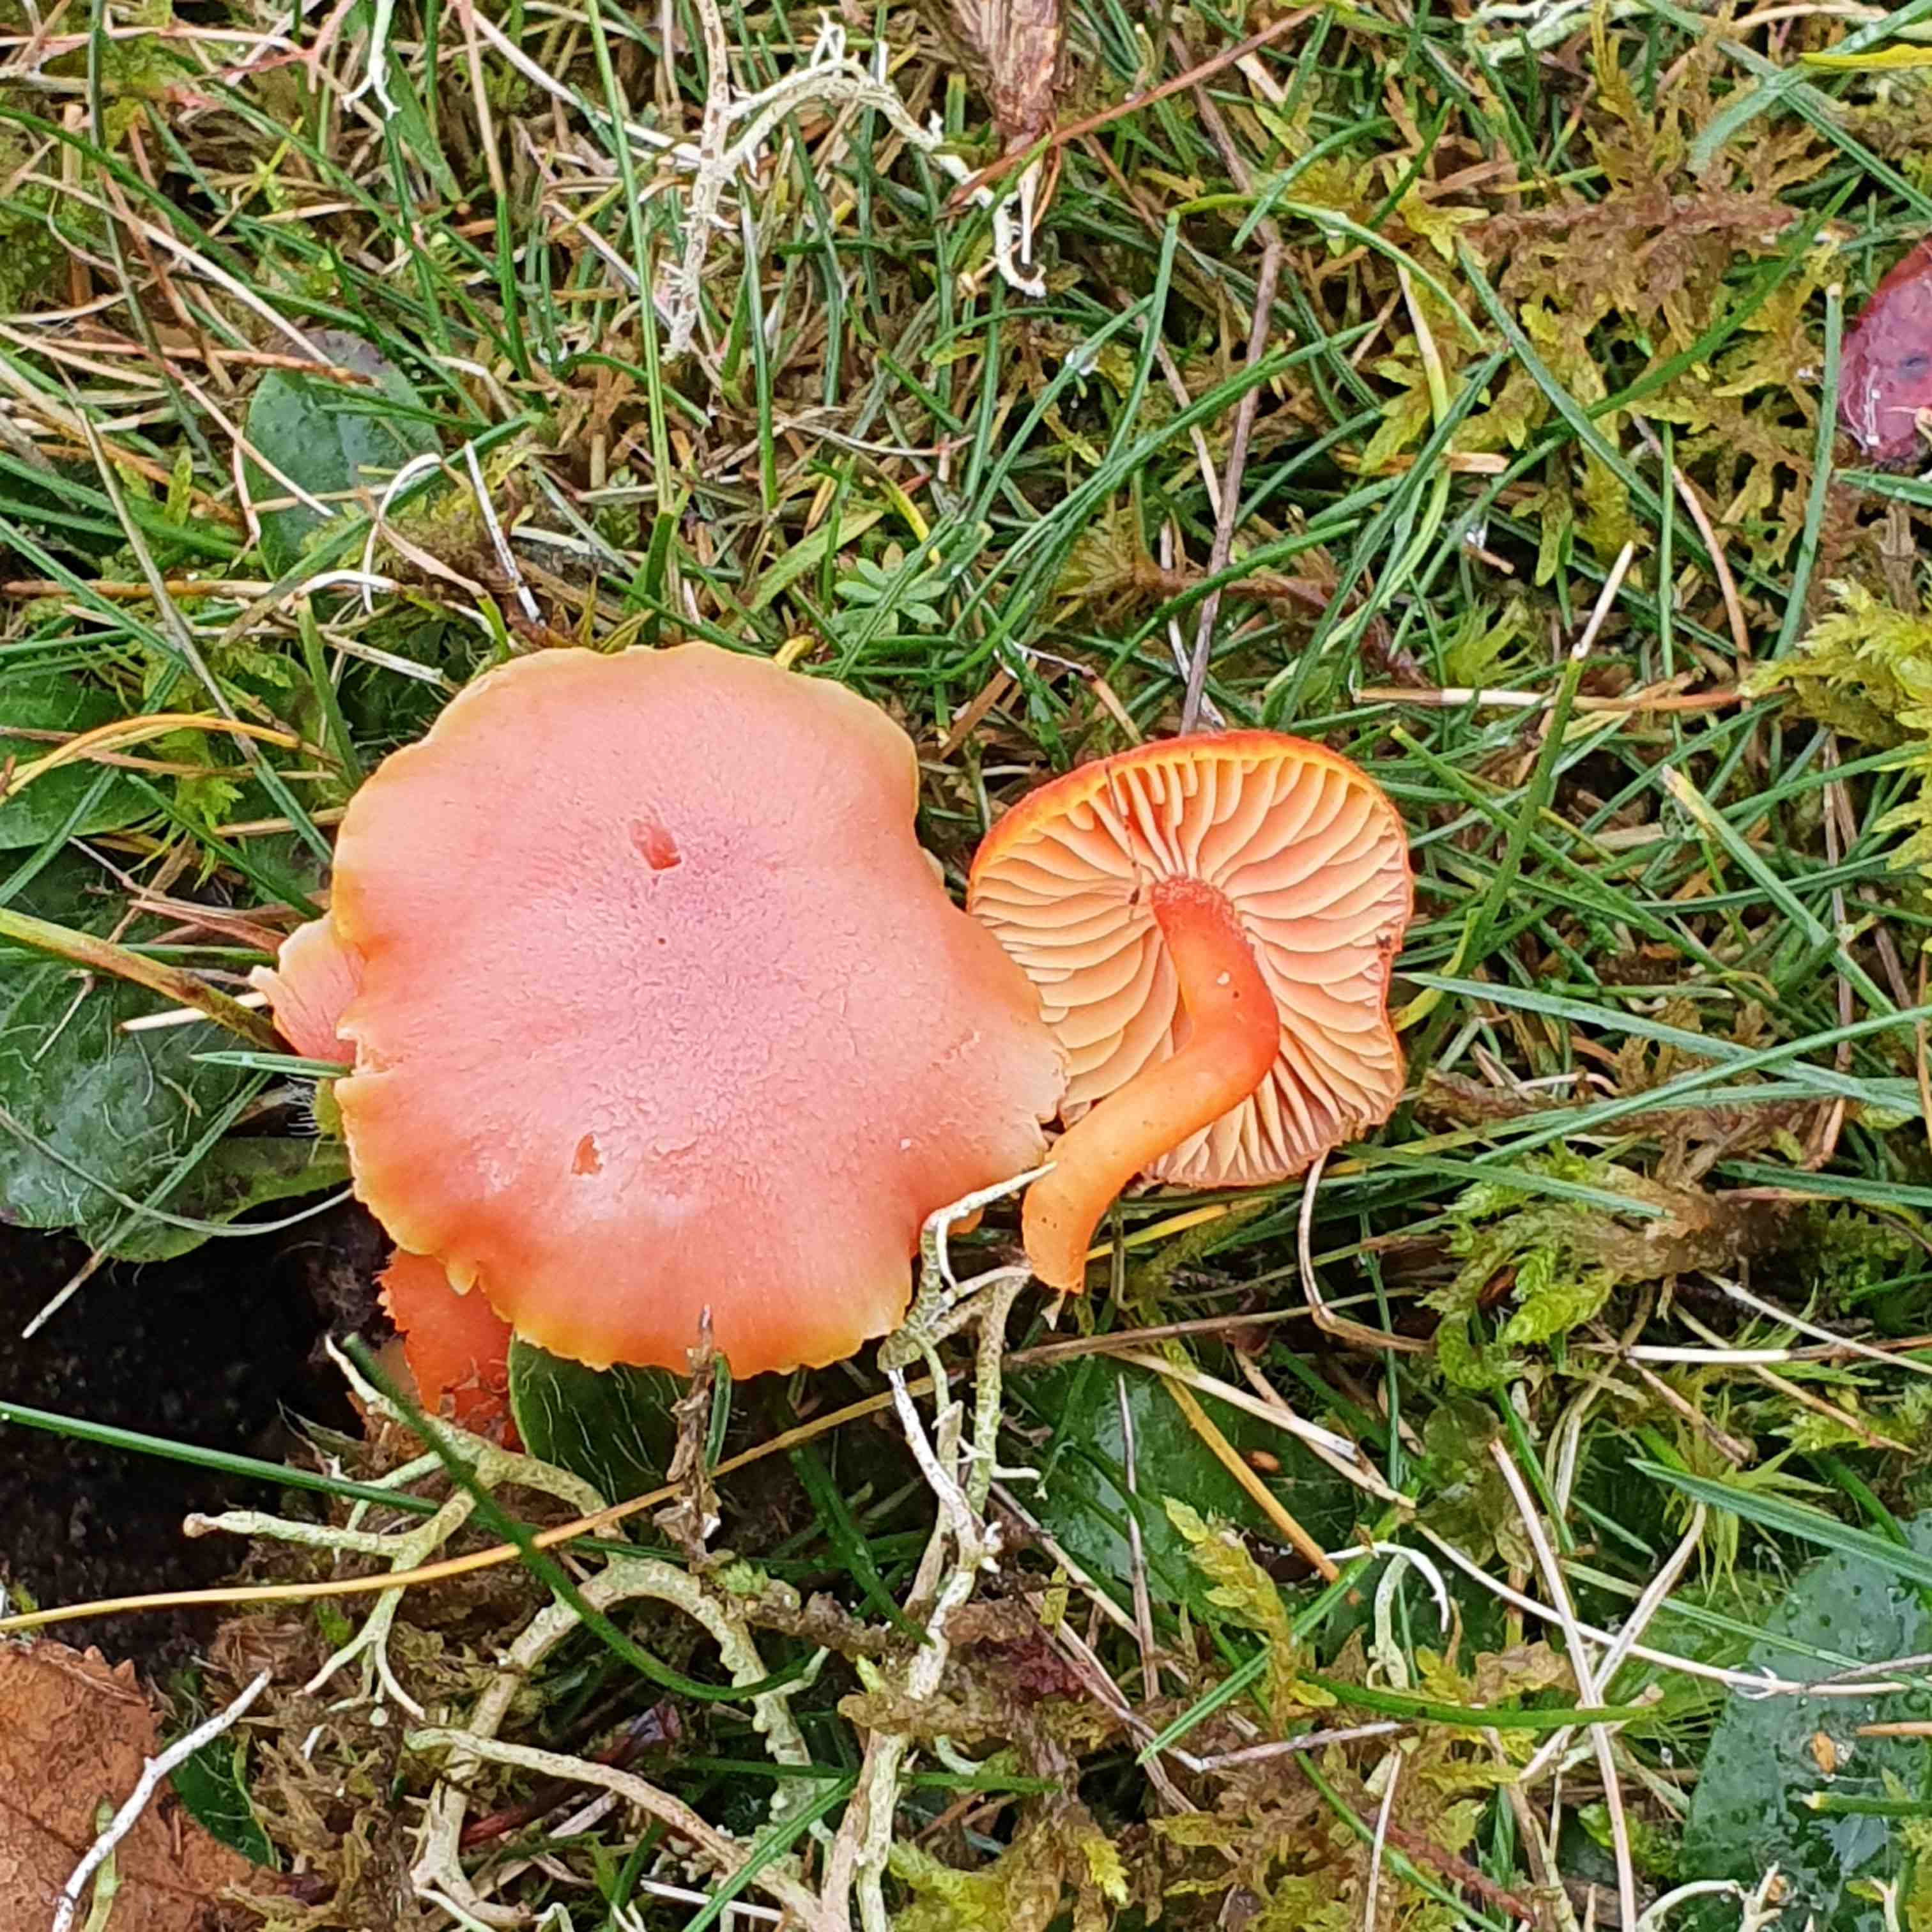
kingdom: Fungi
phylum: Basidiomycota
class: Agaricomycetes
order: Agaricales
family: Hygrophoraceae
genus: Hygrocybe
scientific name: Hygrocybe miniata
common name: mønje-vokshat
